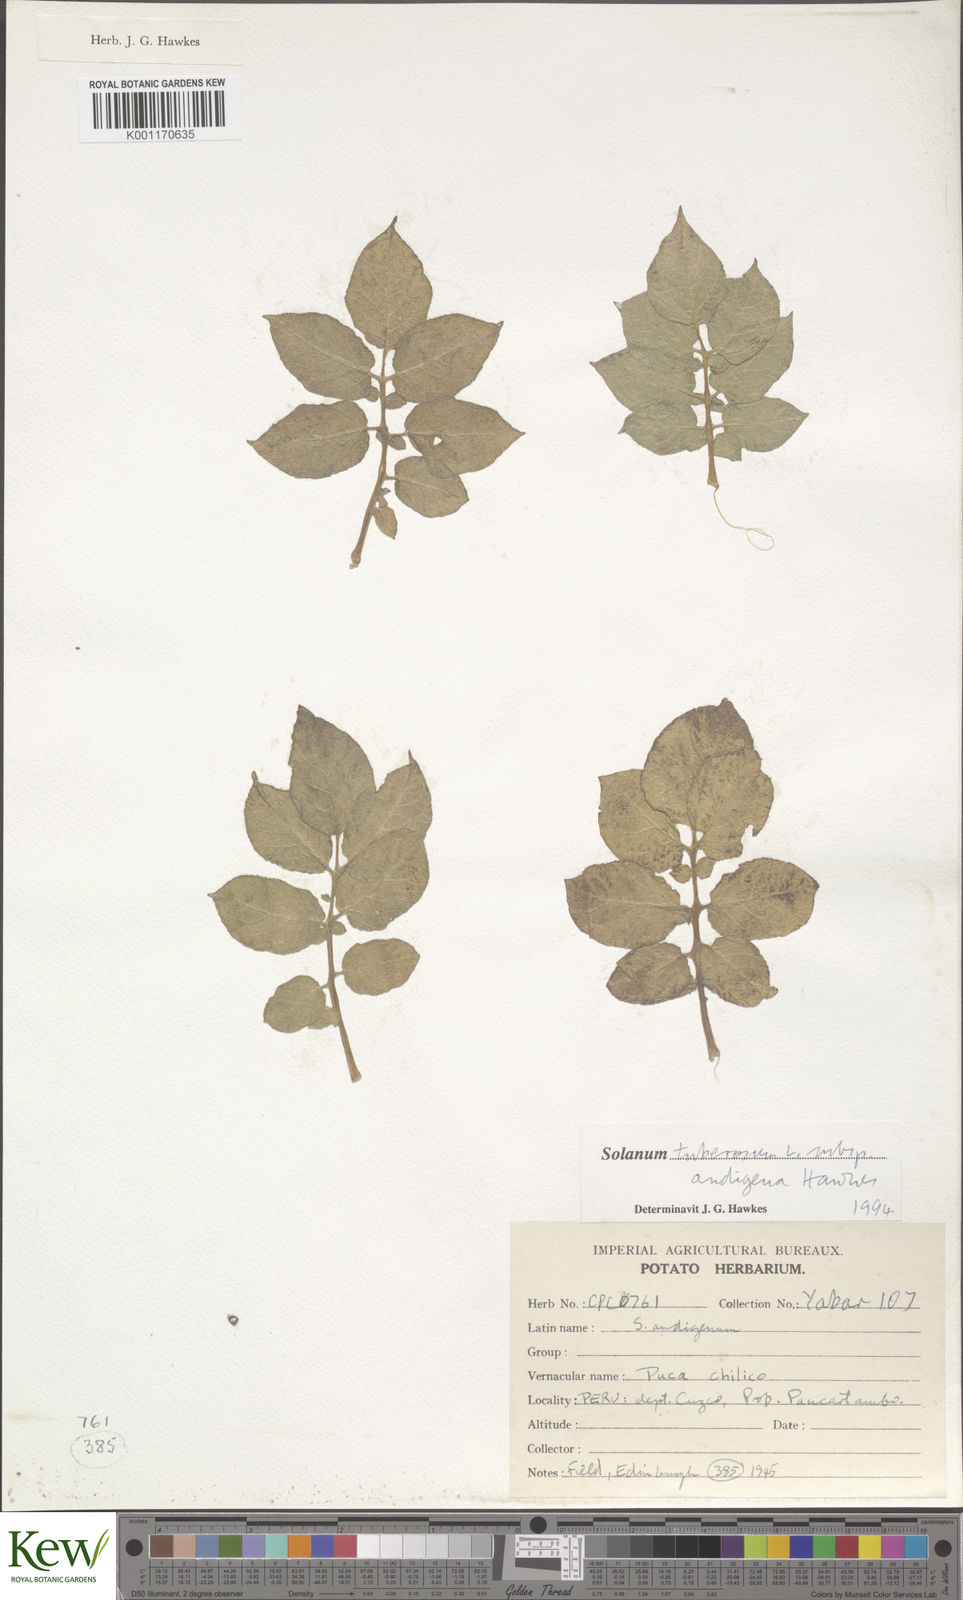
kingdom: Plantae
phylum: Tracheophyta
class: Magnoliopsida
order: Solanales
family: Solanaceae
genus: Solanum
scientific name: Solanum tuberosum
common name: Potato
